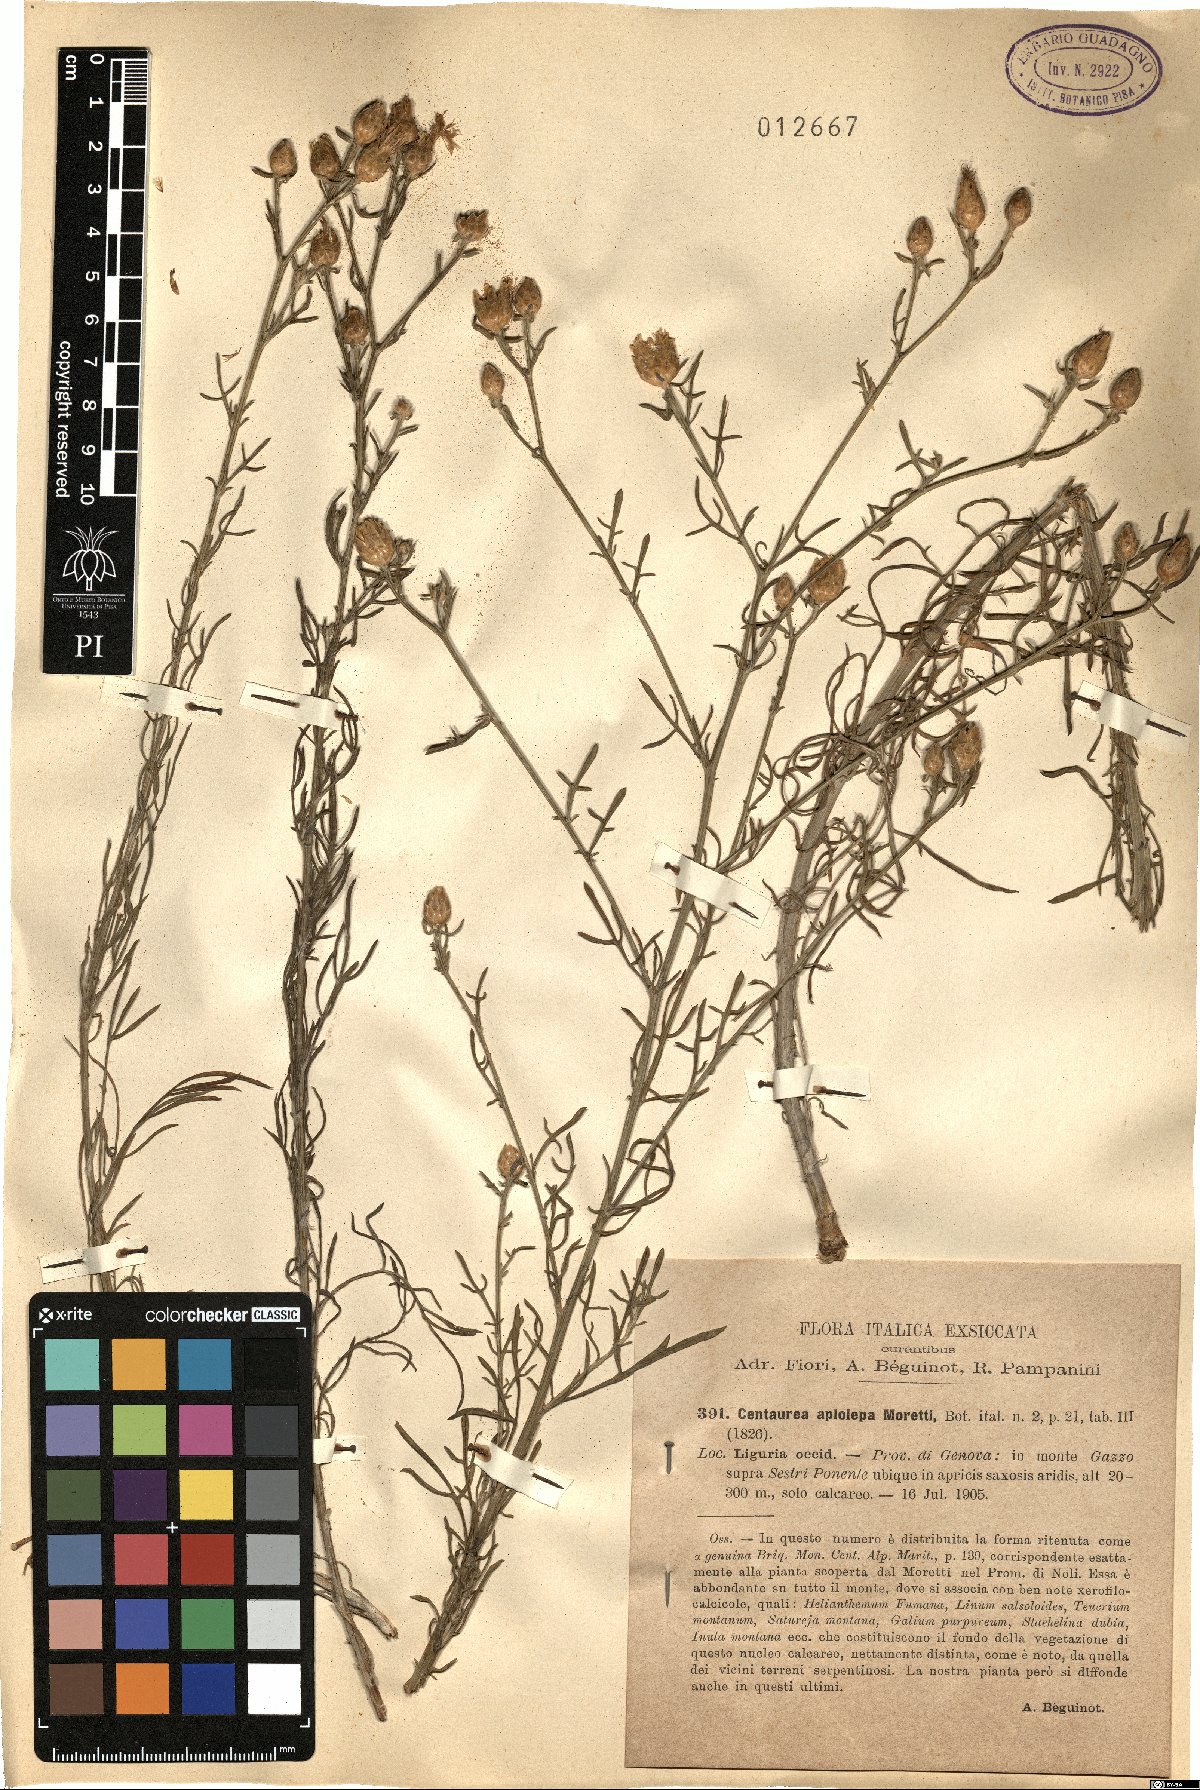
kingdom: Plantae
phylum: Tracheophyta
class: Magnoliopsida
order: Asterales
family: Asteraceae
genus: Centaurea
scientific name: Centaurea aplolepa
